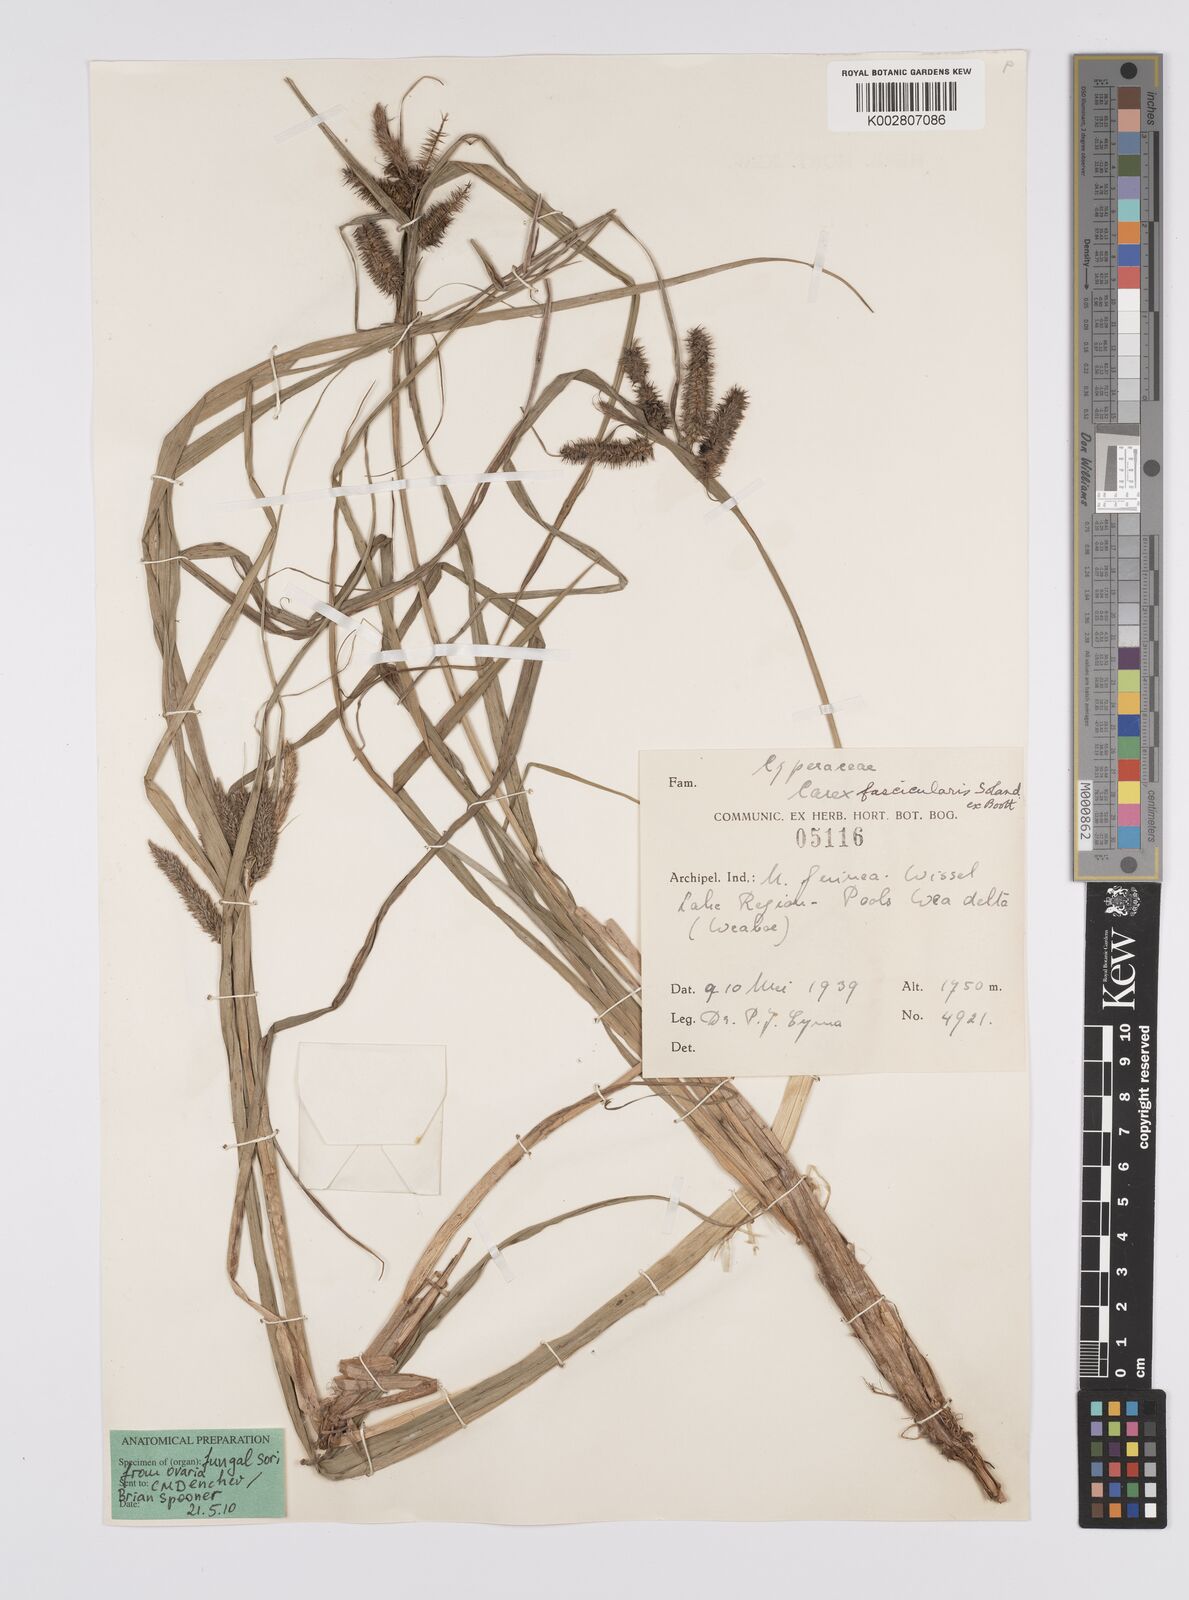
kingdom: Plantae
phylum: Tracheophyta
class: Liliopsida
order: Poales
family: Cyperaceae
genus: Carex
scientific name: Carex fascicularis
